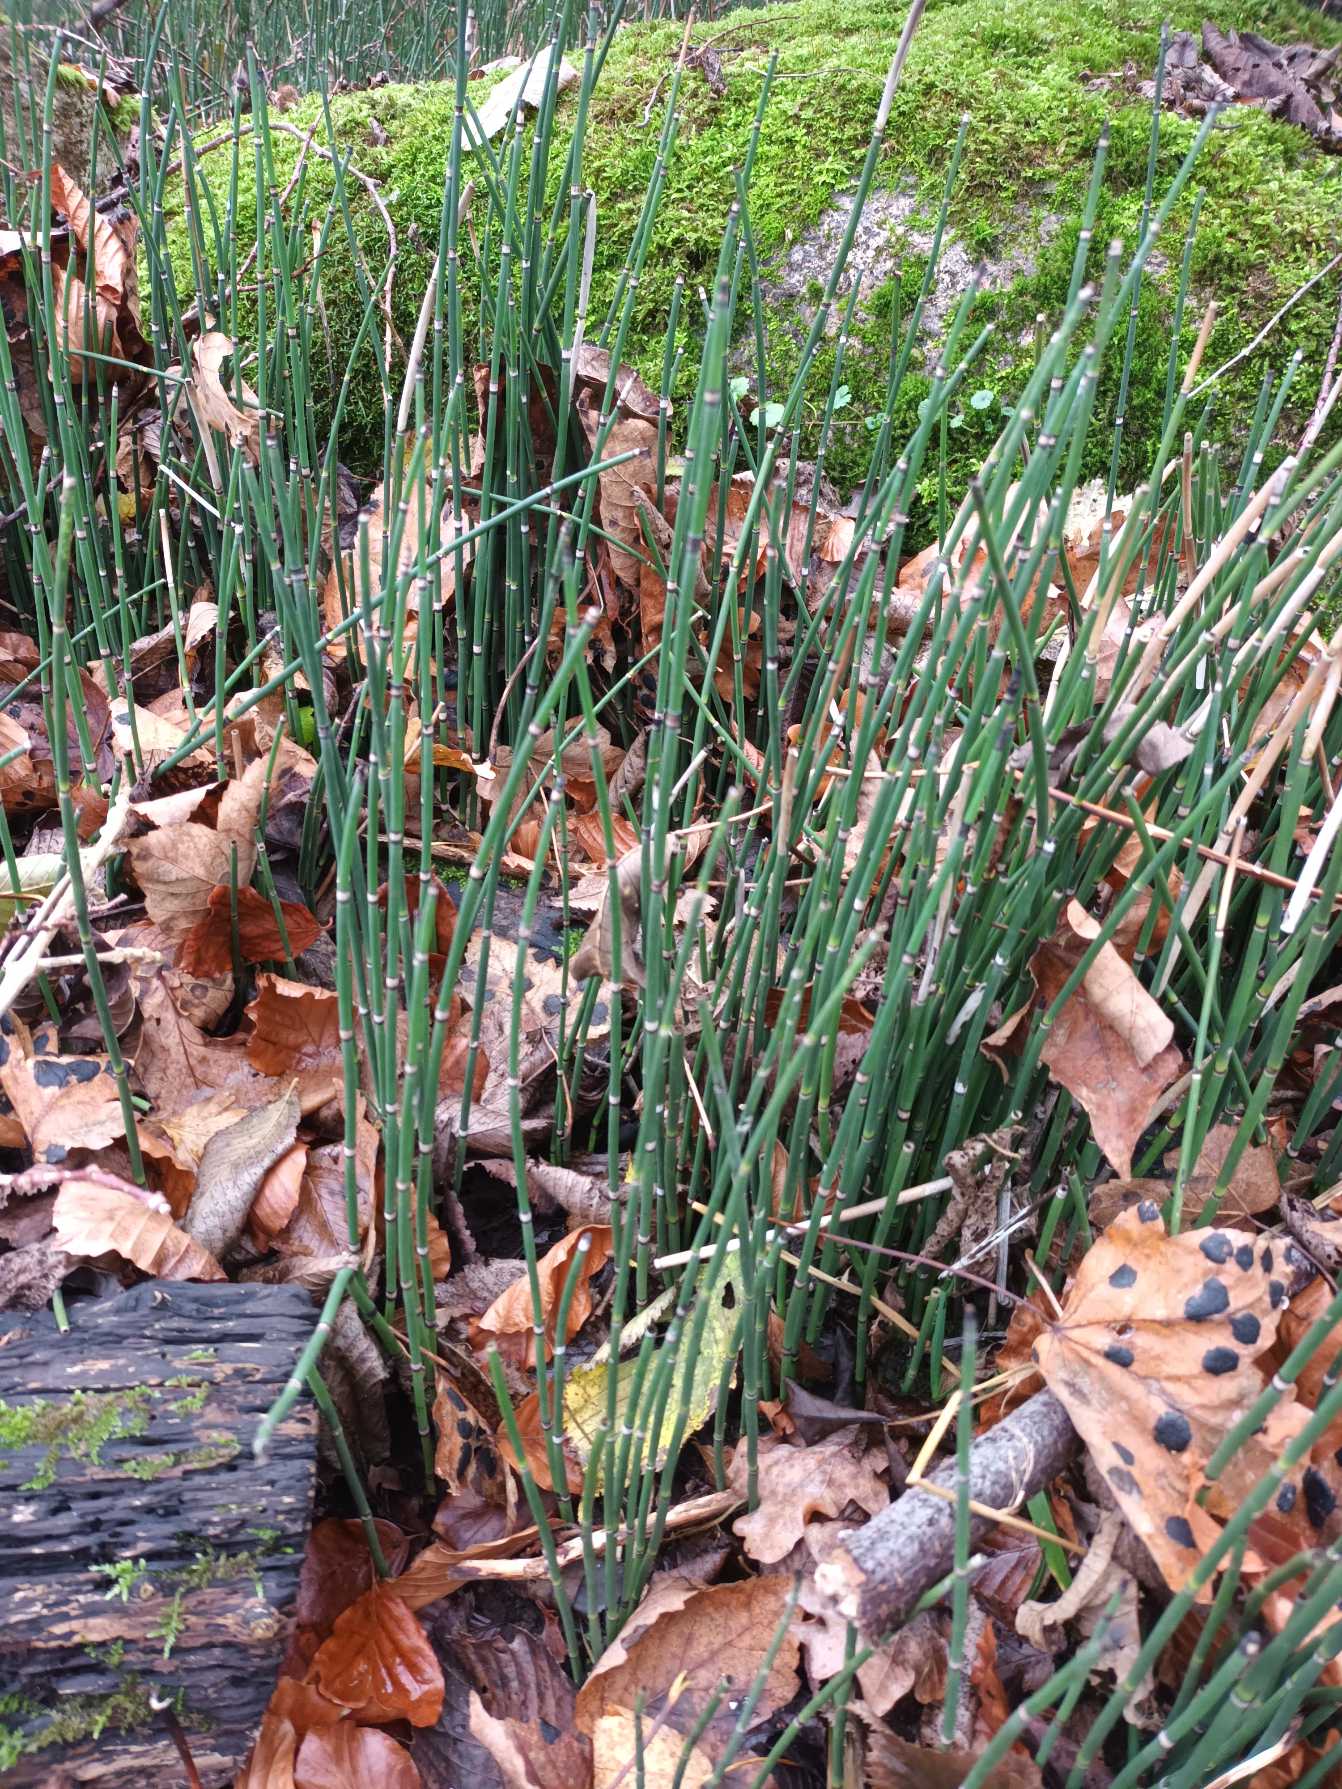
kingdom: Plantae
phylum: Tracheophyta
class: Polypodiopsida
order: Equisetales
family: Equisetaceae
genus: Equisetum
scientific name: Equisetum hyemale
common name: Skavgræs
